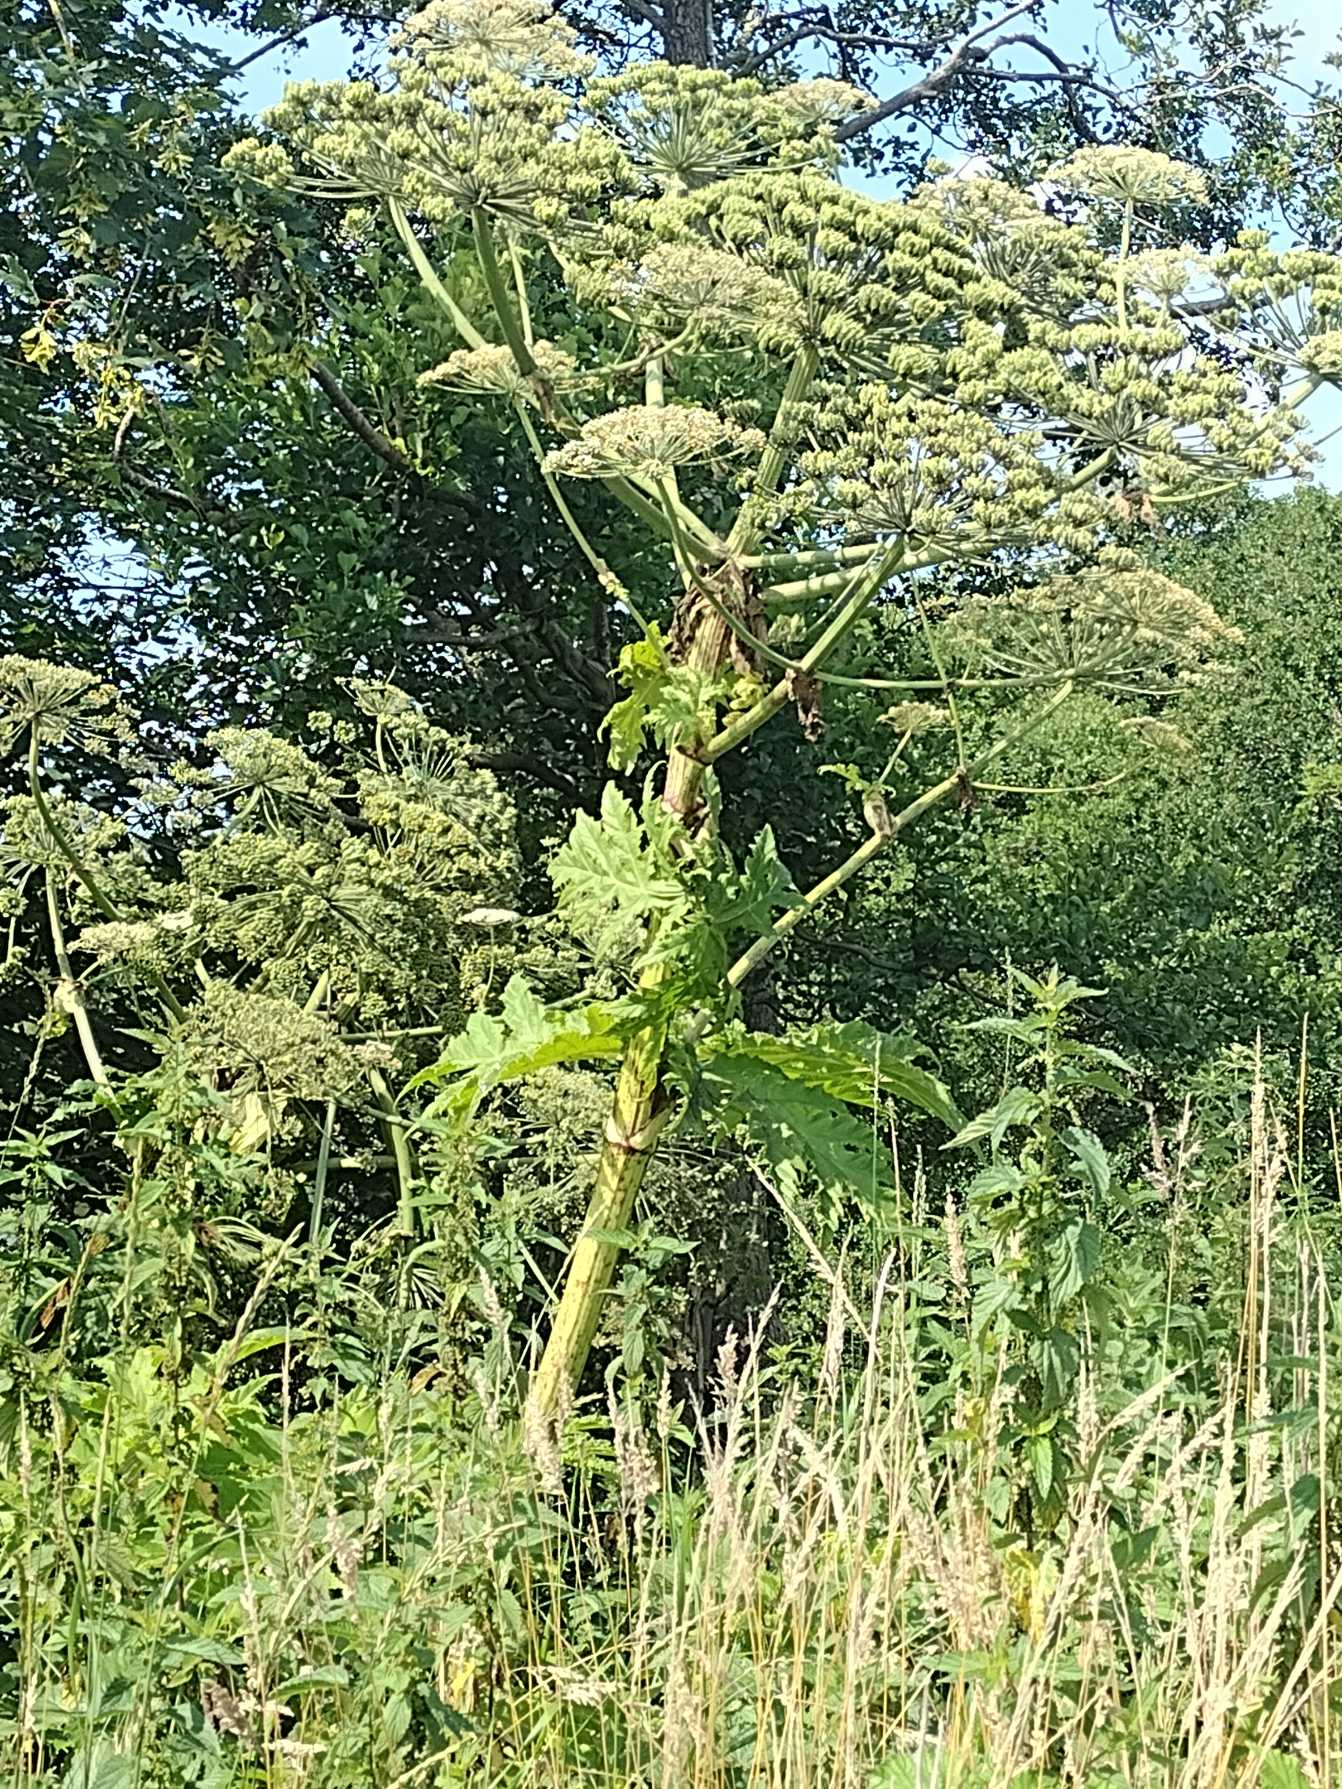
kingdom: Plantae
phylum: Tracheophyta
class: Magnoliopsida
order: Apiales
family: Apiaceae
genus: Heracleum
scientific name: Heracleum mantegazzianum
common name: Kæmpe-bjørneklo
